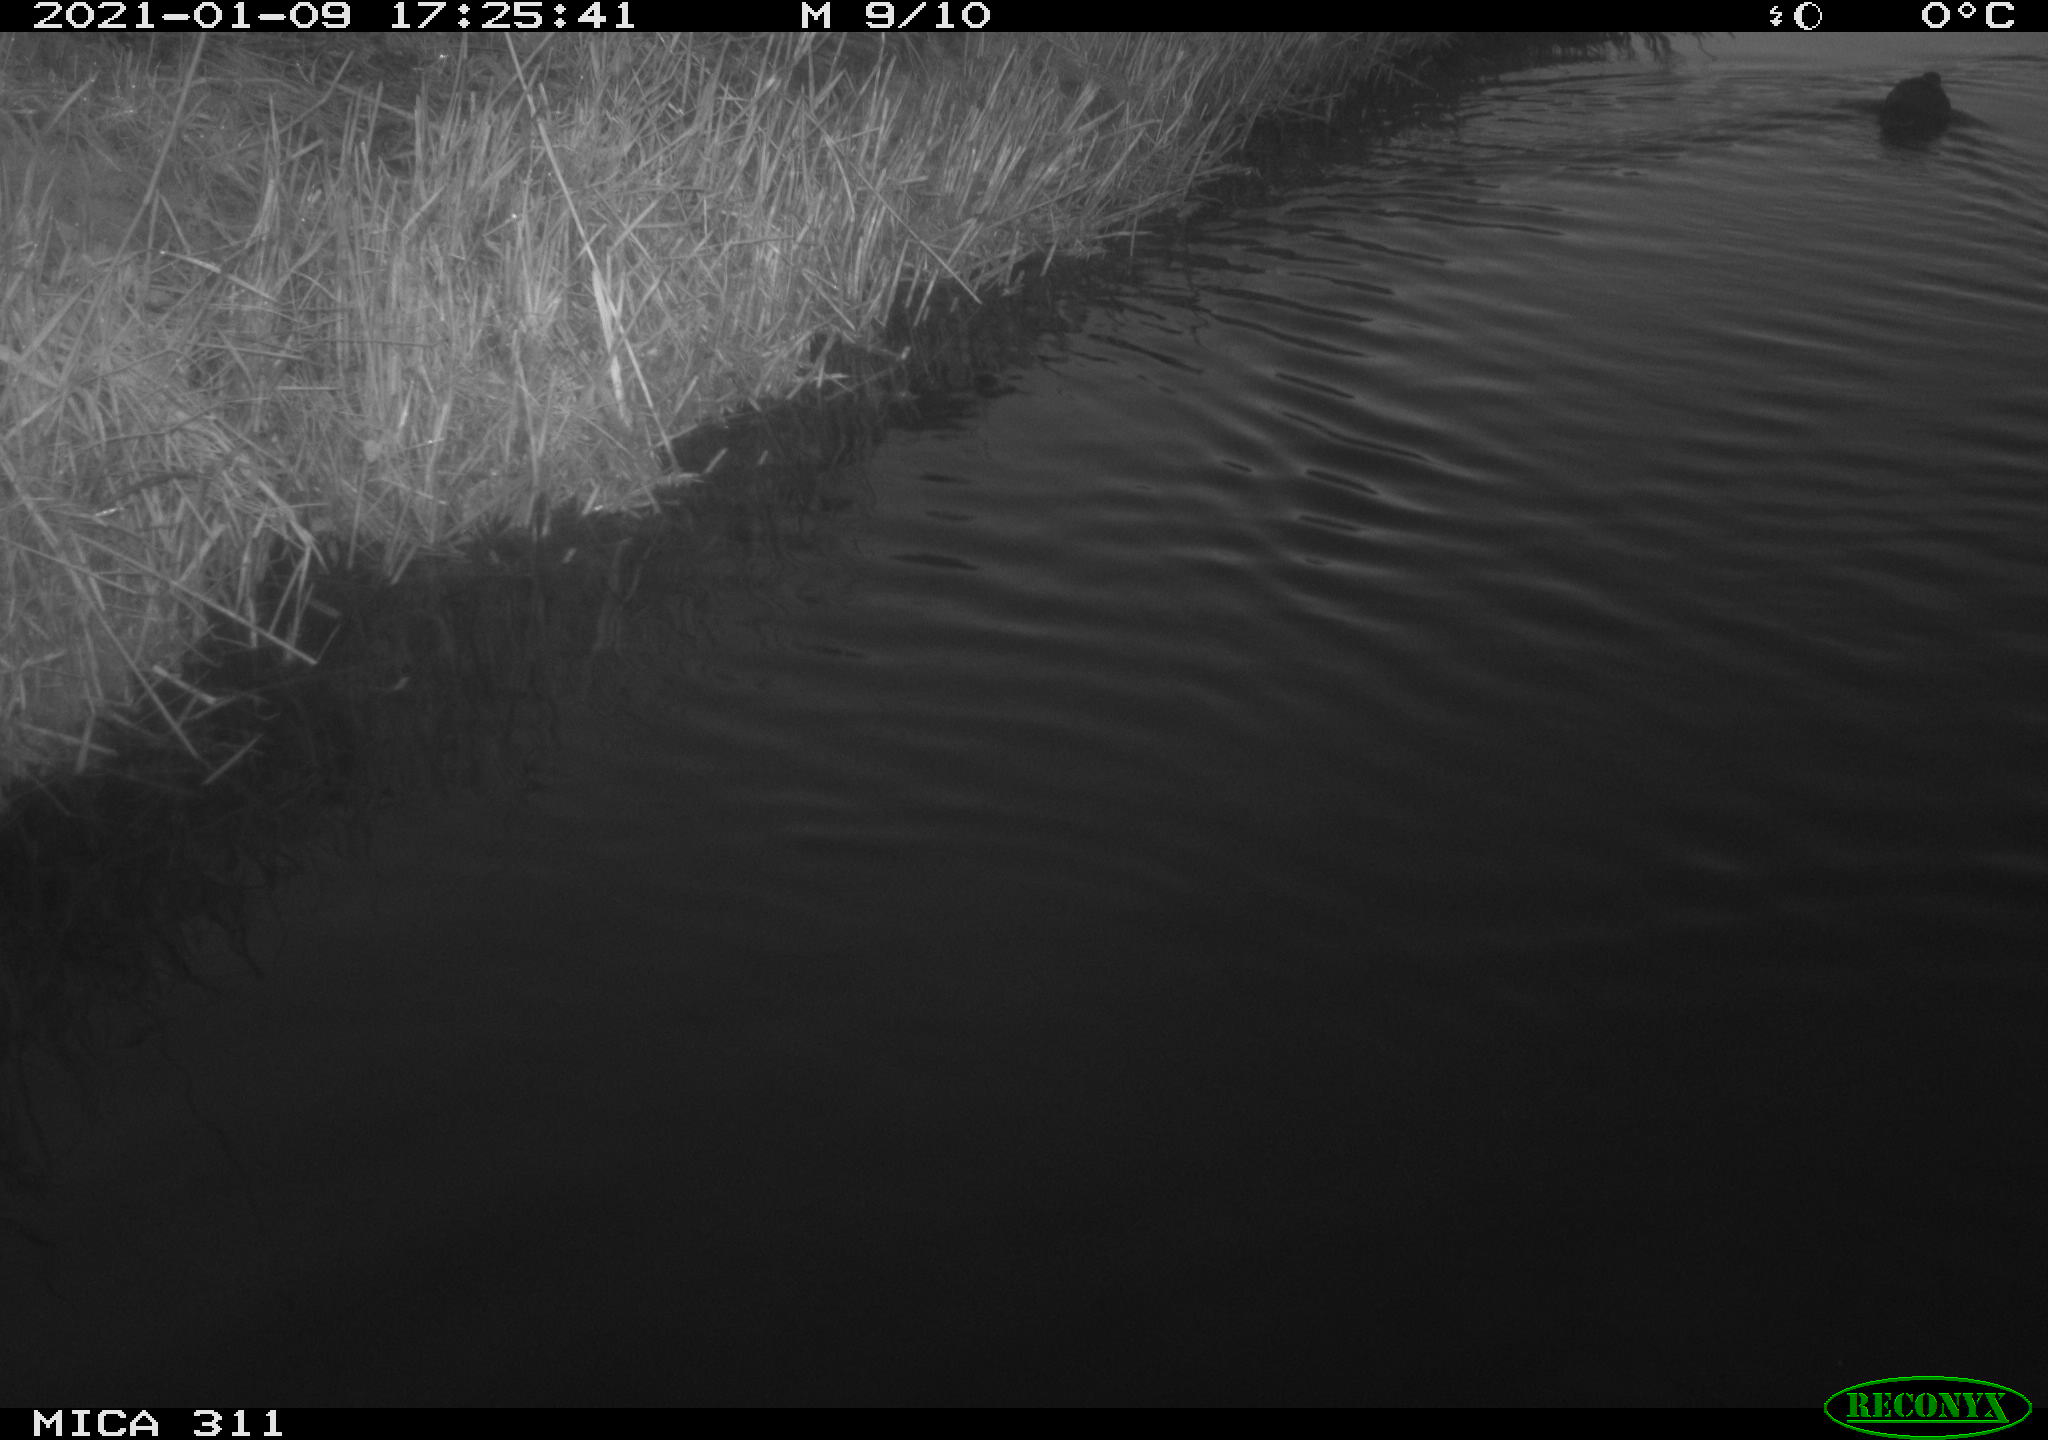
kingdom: Animalia
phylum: Chordata
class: Aves
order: Gruiformes
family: Rallidae
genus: Gallinula
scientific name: Gallinula chloropus
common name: Common moorhen
